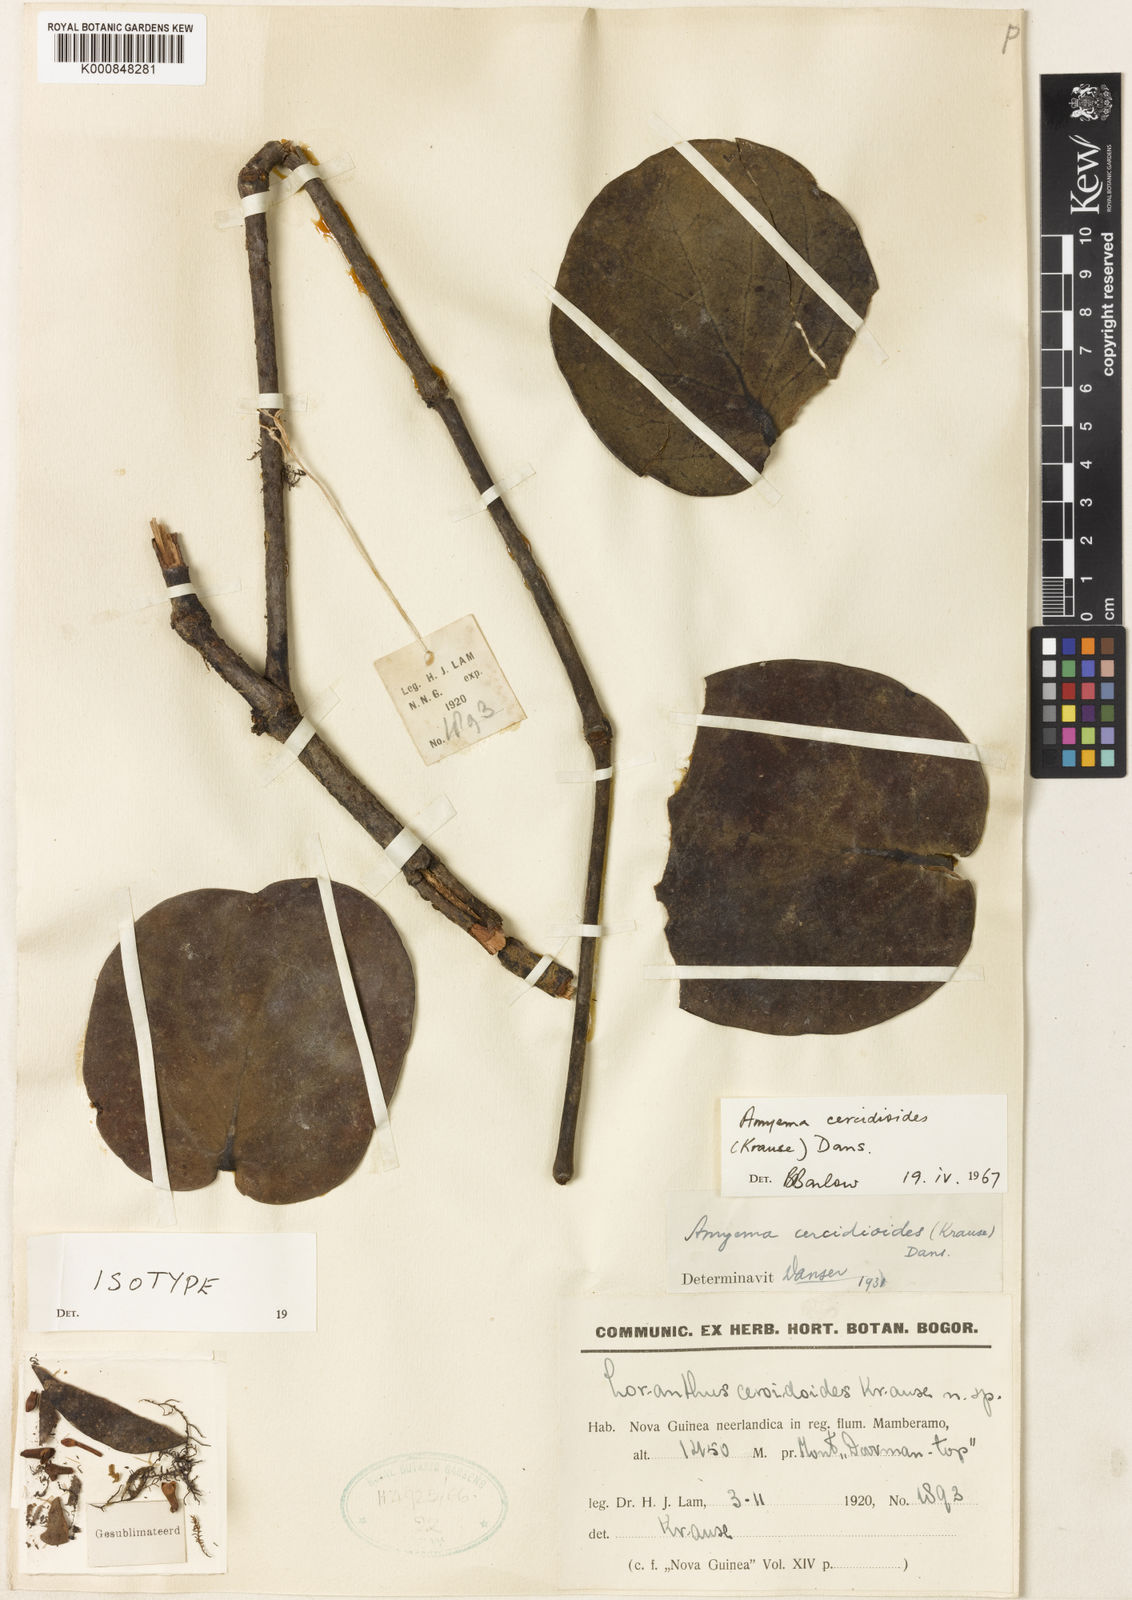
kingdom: Plantae
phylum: Tracheophyta
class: Magnoliopsida
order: Santalales
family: Loranthaceae
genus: Amyema
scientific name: Amyema cercidioides
